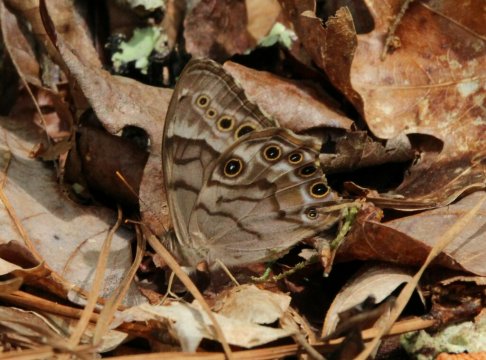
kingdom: Animalia
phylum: Arthropoda
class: Insecta
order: Lepidoptera
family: Nymphalidae
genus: Enodia
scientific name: Enodia portlandia
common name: Southern Pearly Eye
